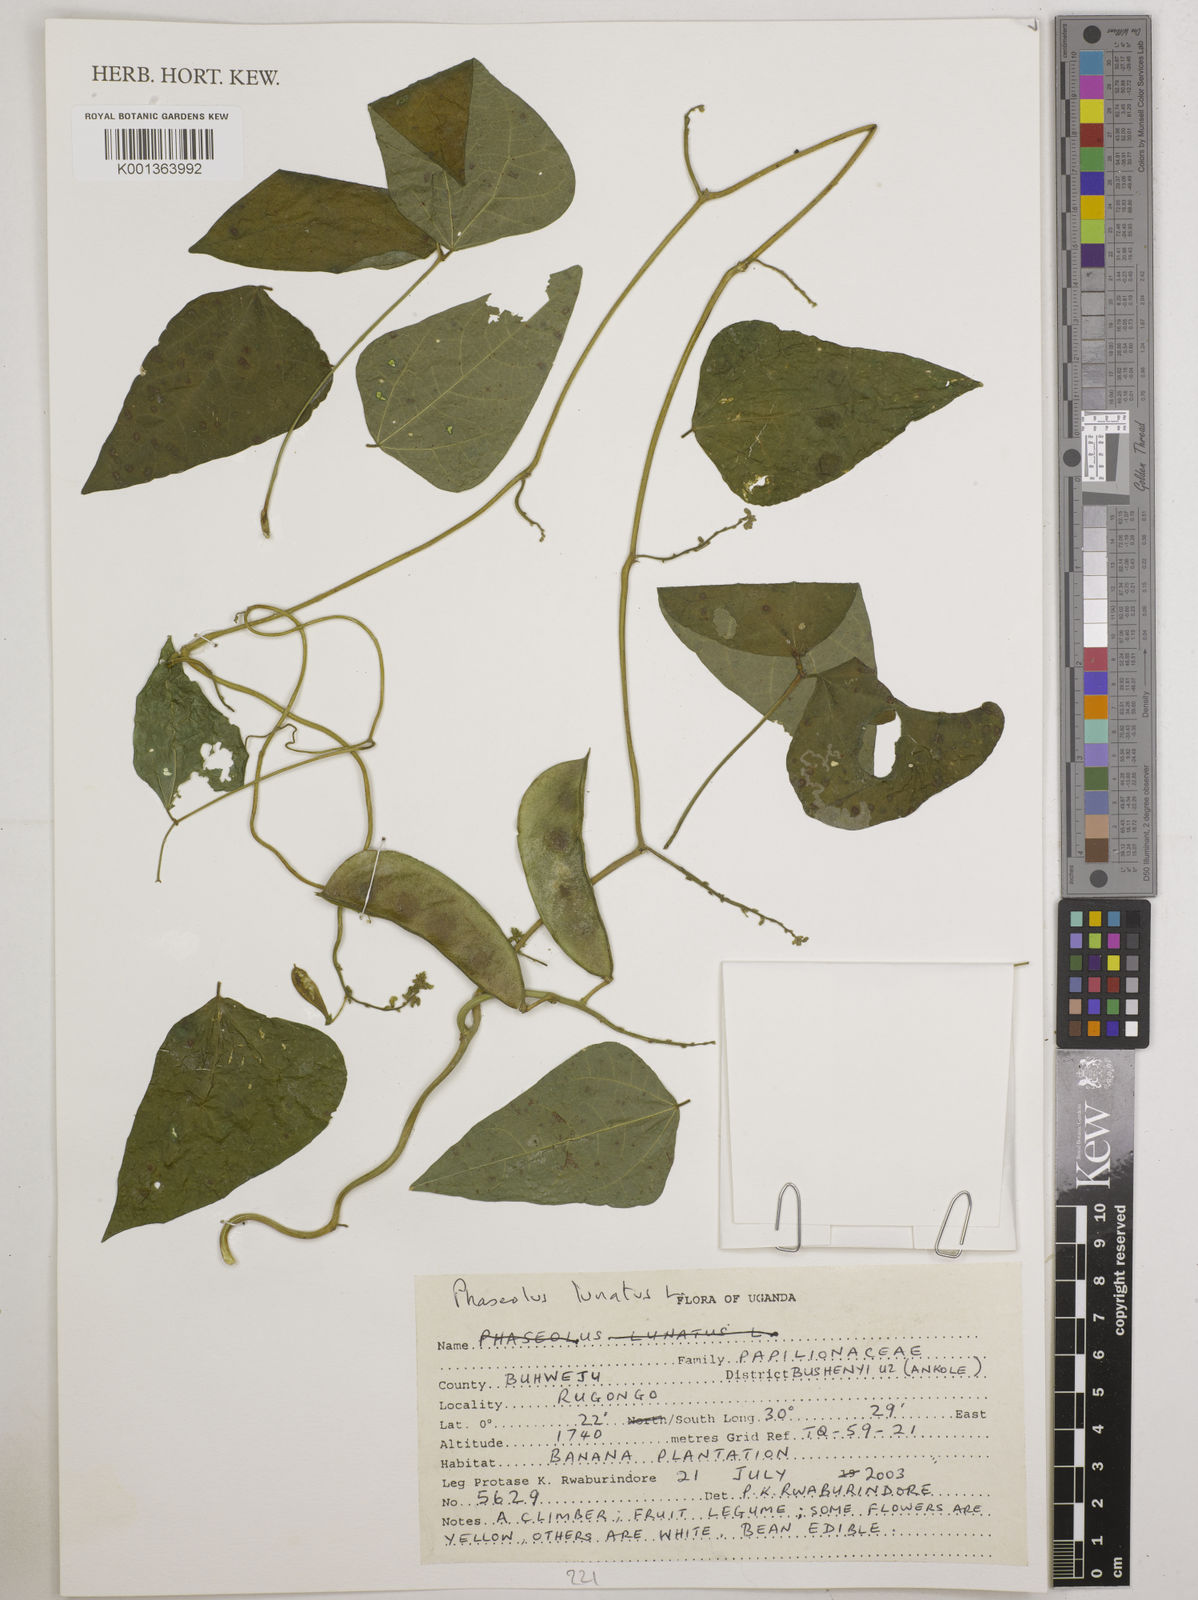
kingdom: Plantae
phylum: Tracheophyta
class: Magnoliopsida
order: Fabales
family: Fabaceae
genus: Phaseolus
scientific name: Phaseolus lunatus
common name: Sieva bean
